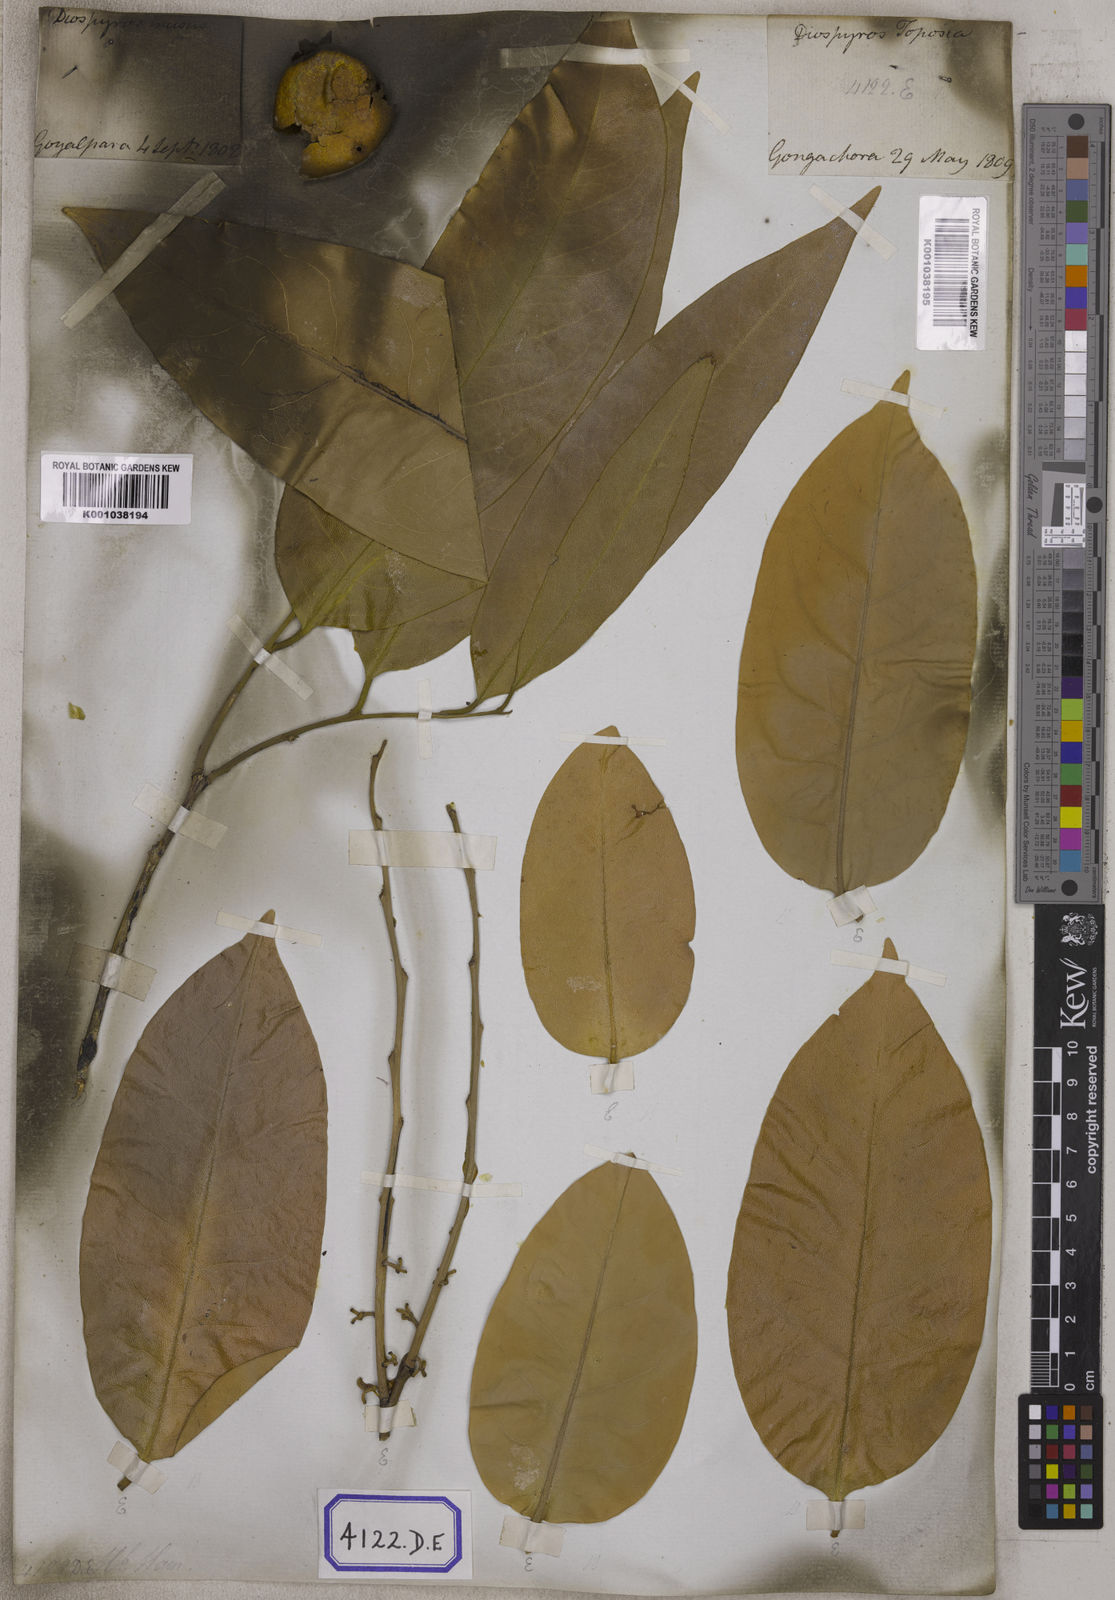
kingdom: Plantae
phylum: Tracheophyta
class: Magnoliopsida
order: Ericales
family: Ebenaceae
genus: Diospyros
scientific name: Diospyros
